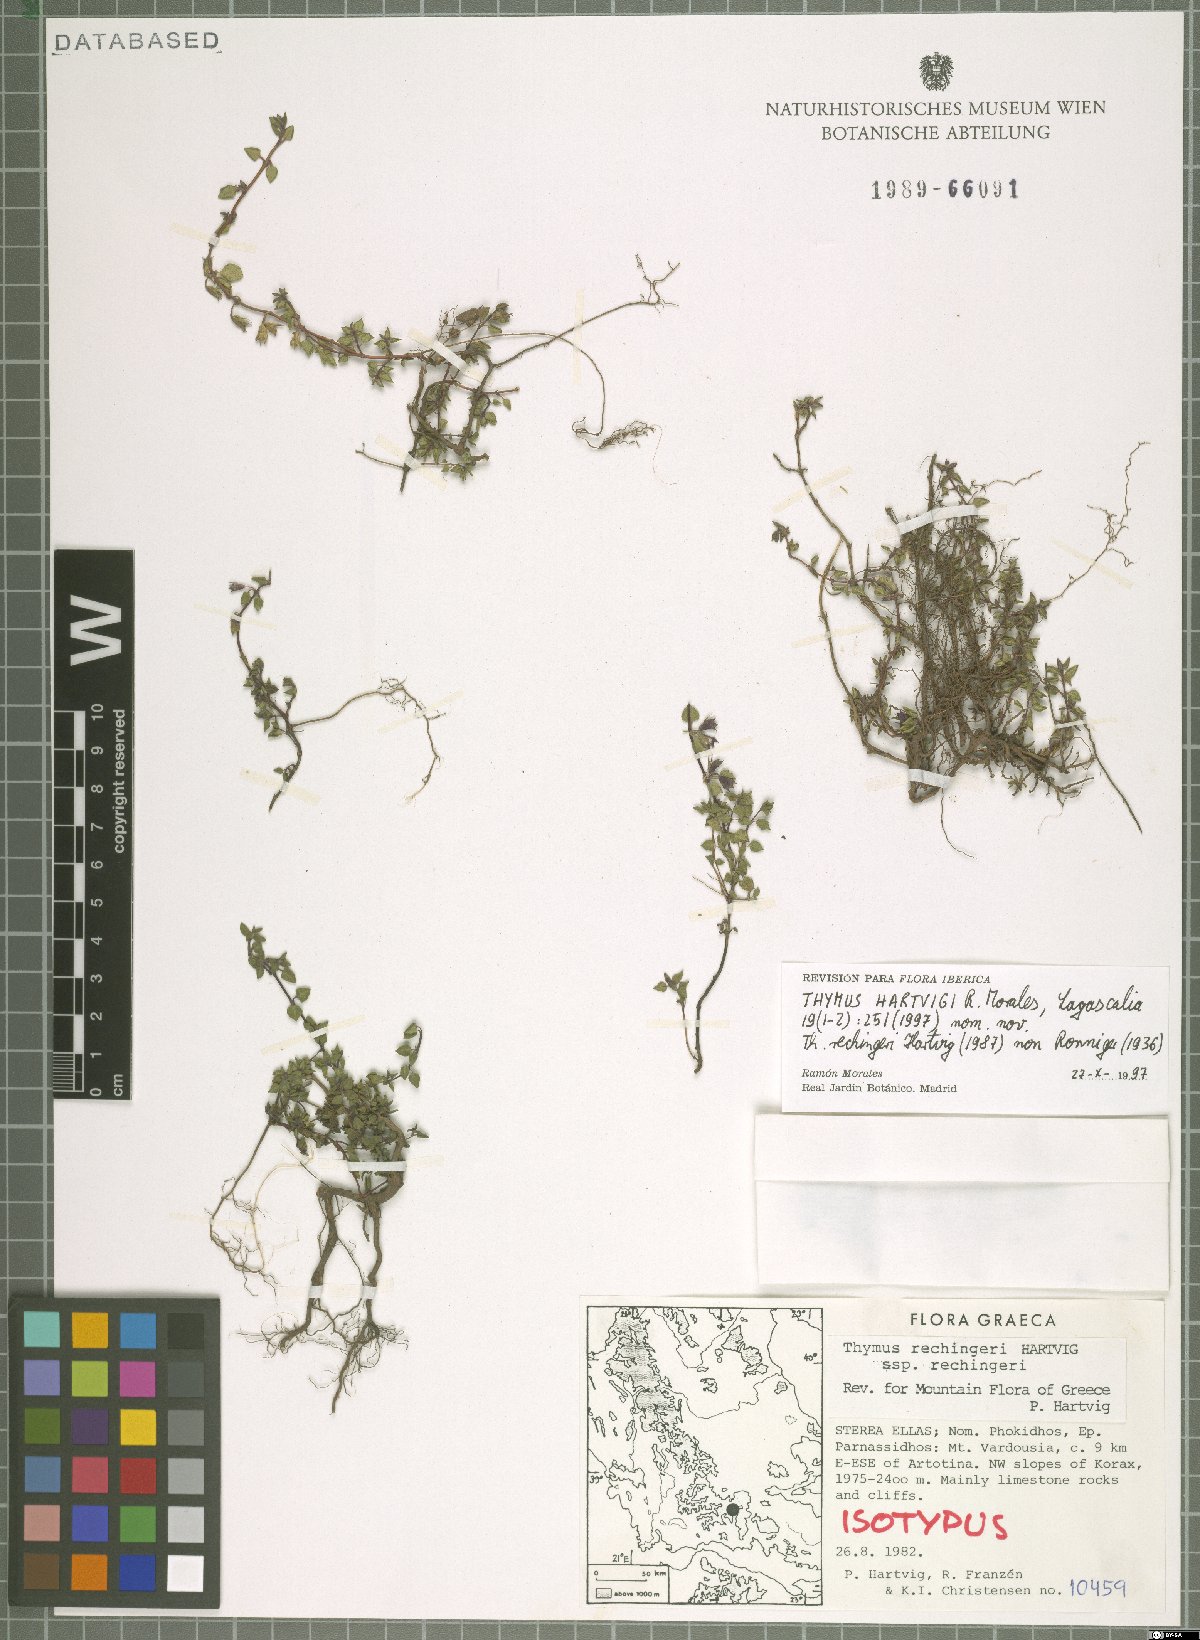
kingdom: Plantae
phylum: Tracheophyta
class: Magnoliopsida
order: Lamiales
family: Lamiaceae
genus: Thymus
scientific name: Thymus hartvigii
